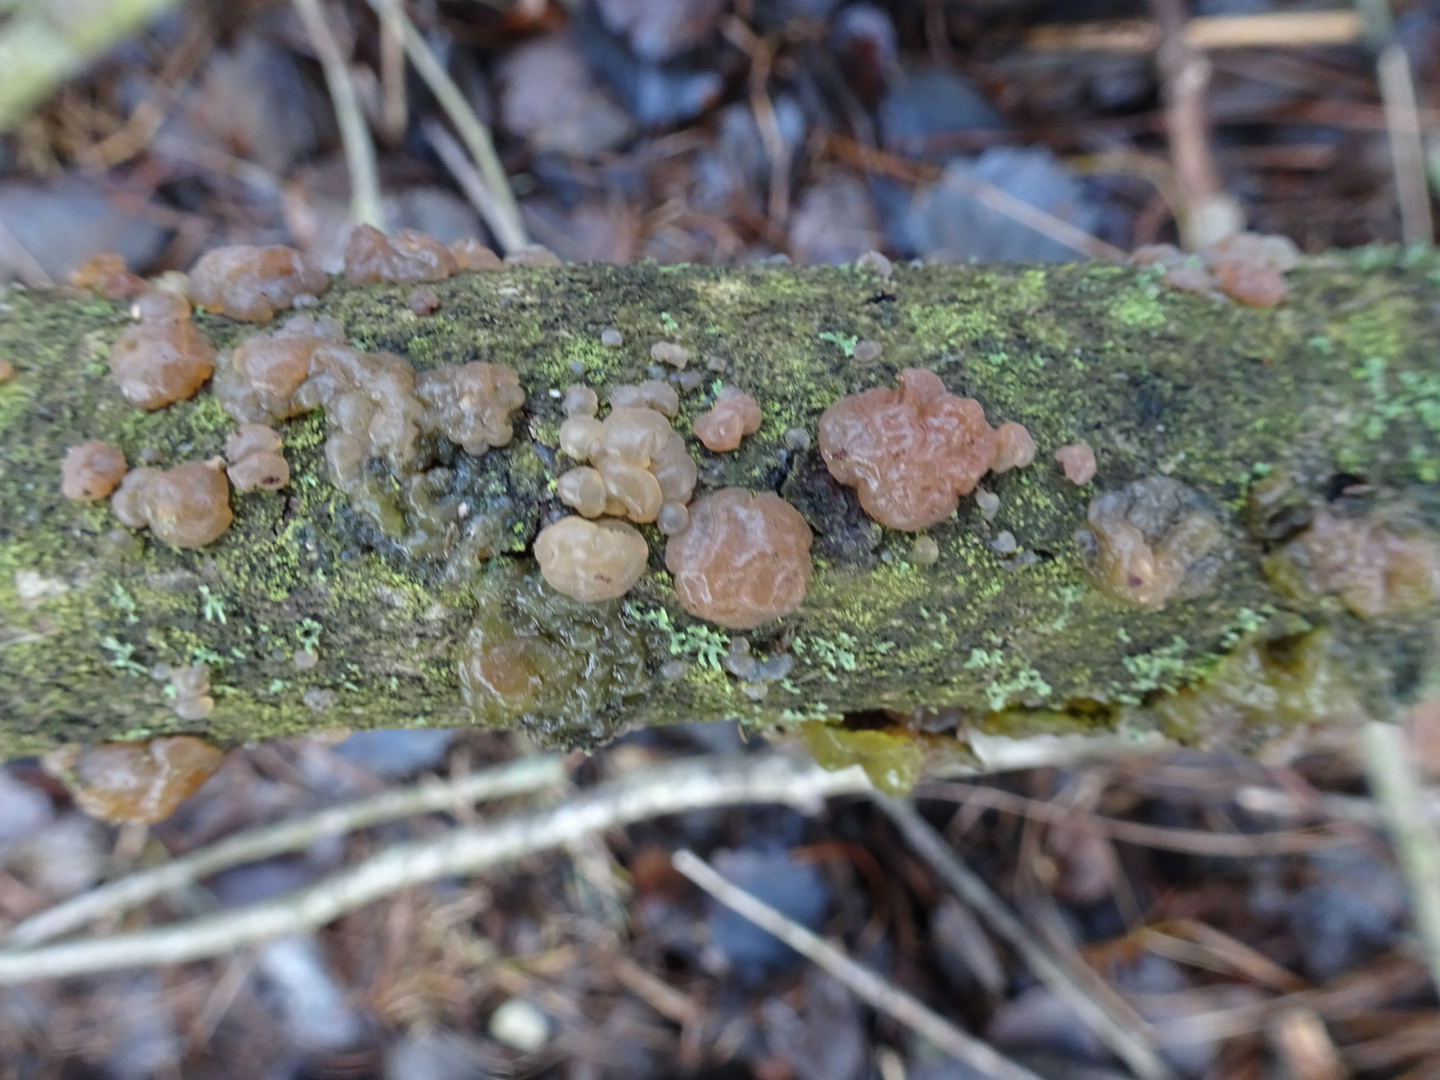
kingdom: Fungi
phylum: Basidiomycota
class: Agaricomycetes
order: Auriculariales
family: Hyaloriaceae
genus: Myxarium
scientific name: Myxarium hyalinum
